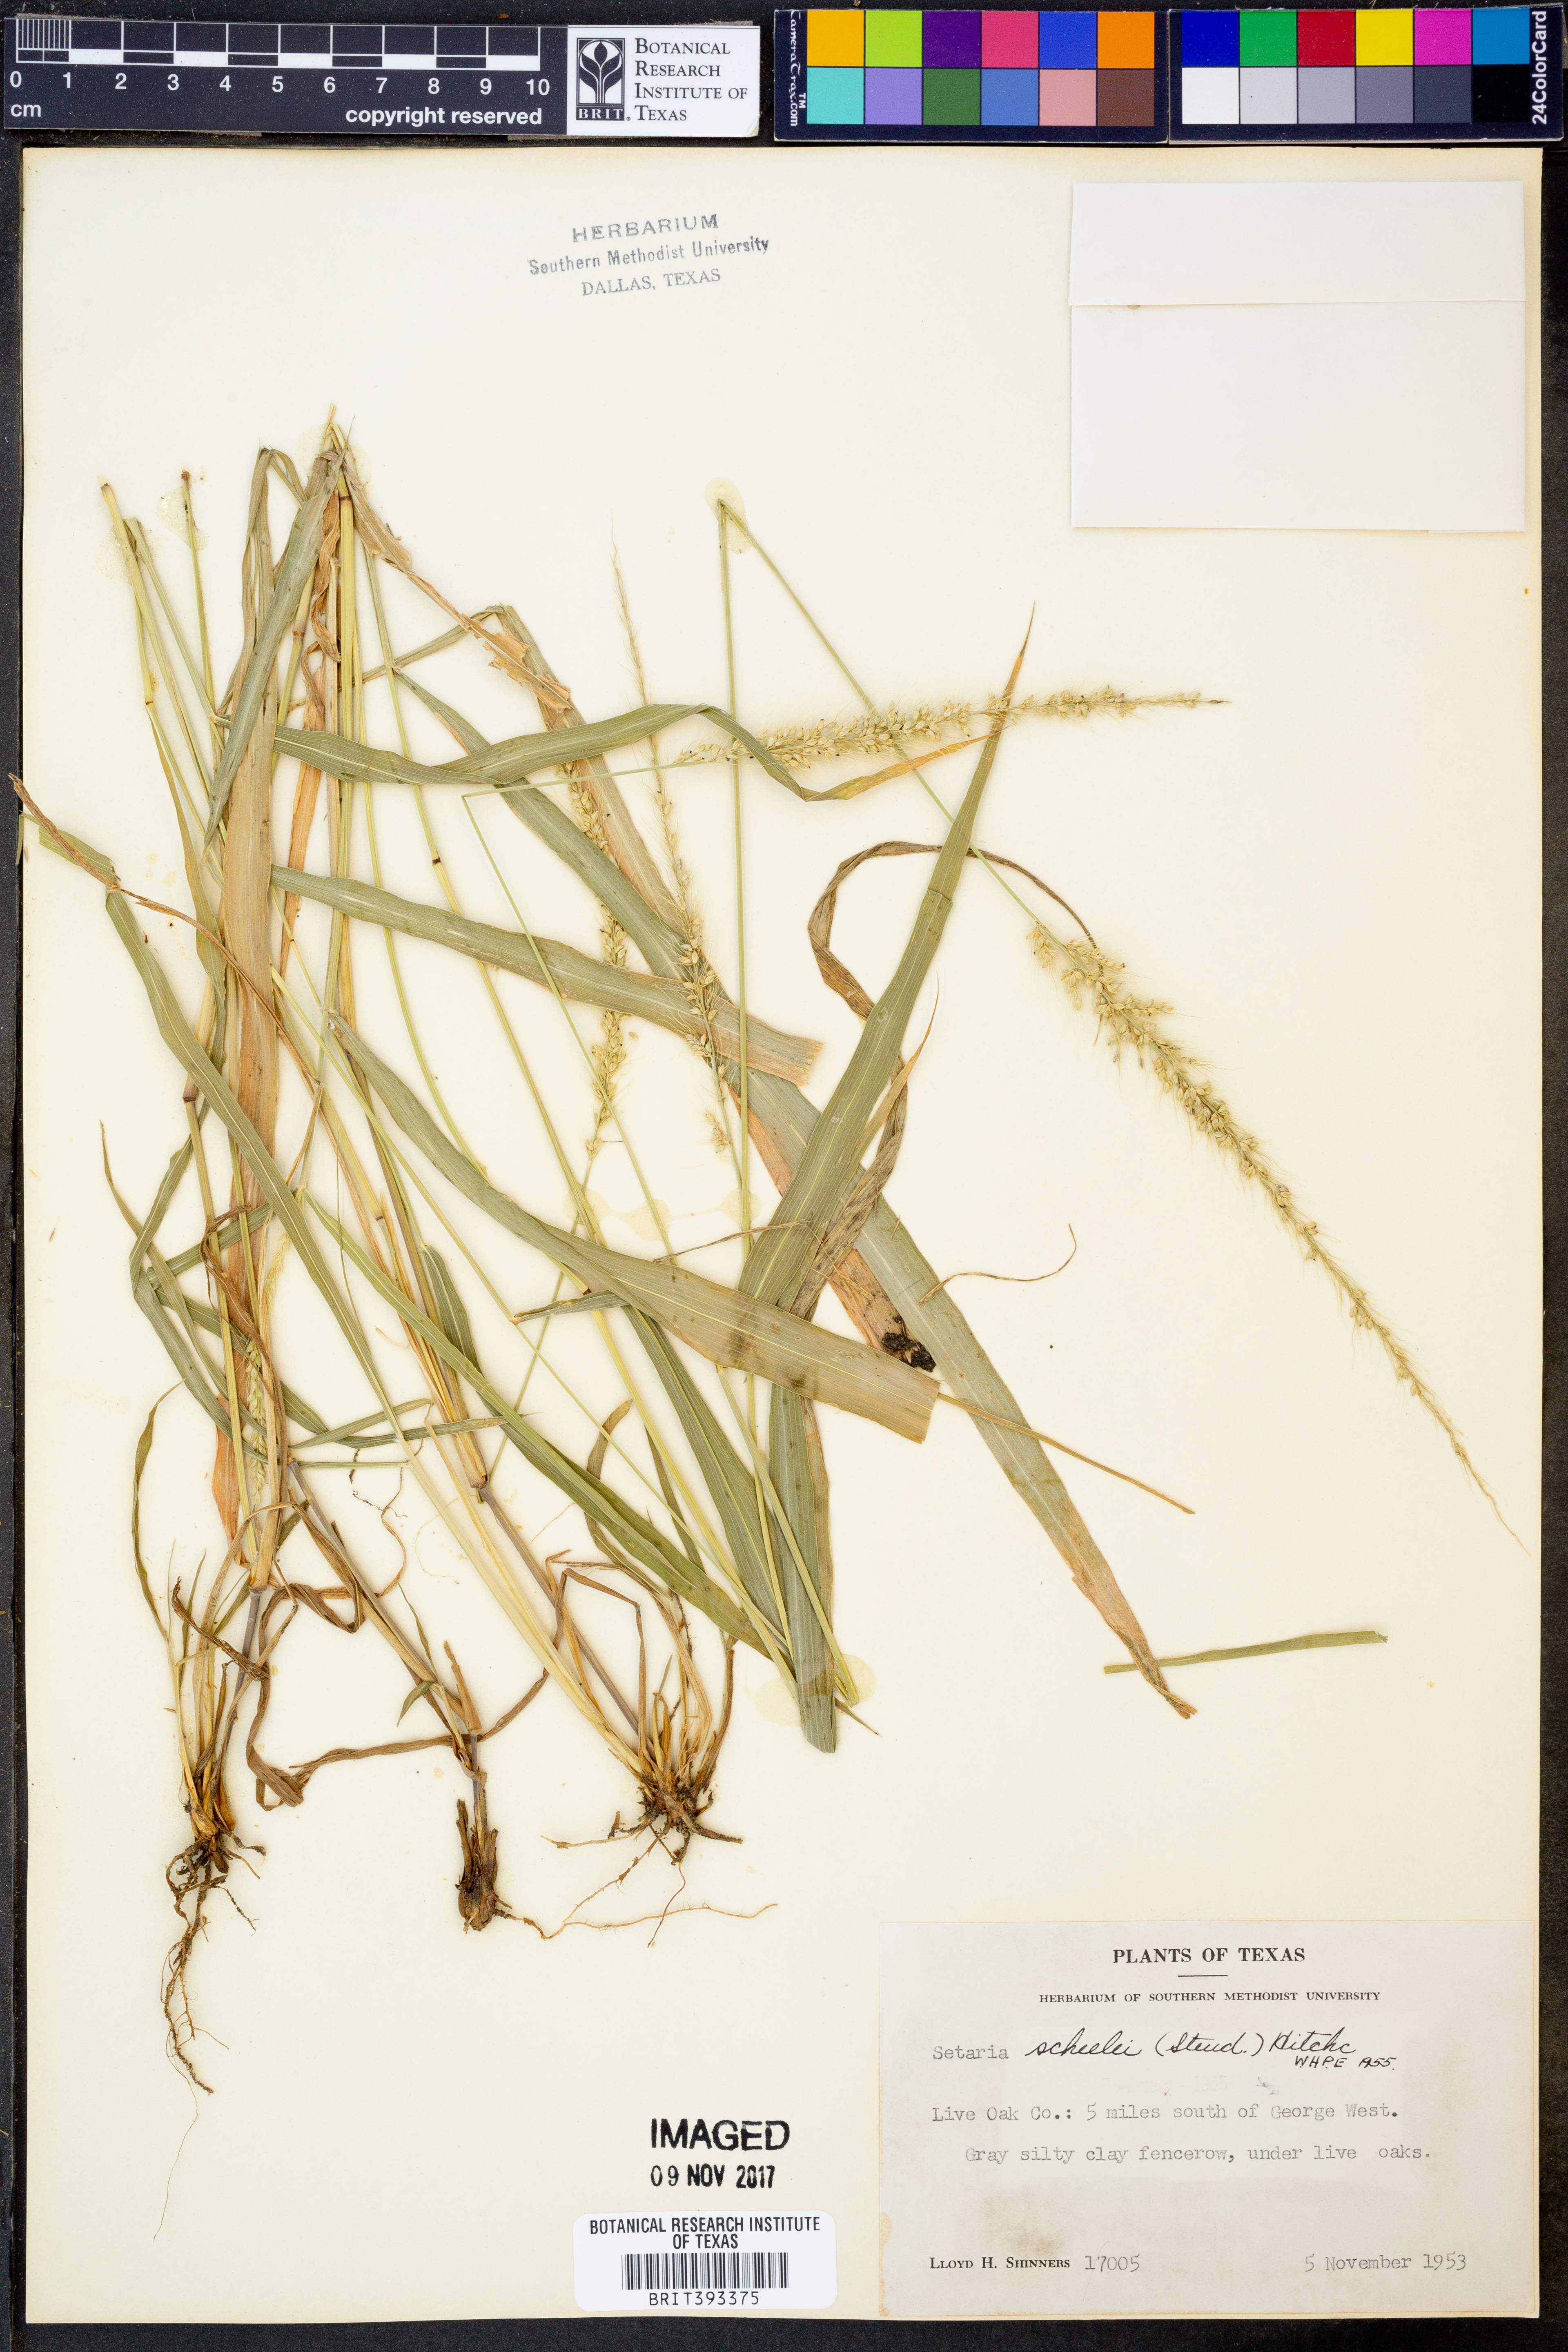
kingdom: Plantae
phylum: Tracheophyta
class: Liliopsida
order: Poales
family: Poaceae
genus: Setaria
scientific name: Setaria scheelei
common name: Southwestern bristle grass
